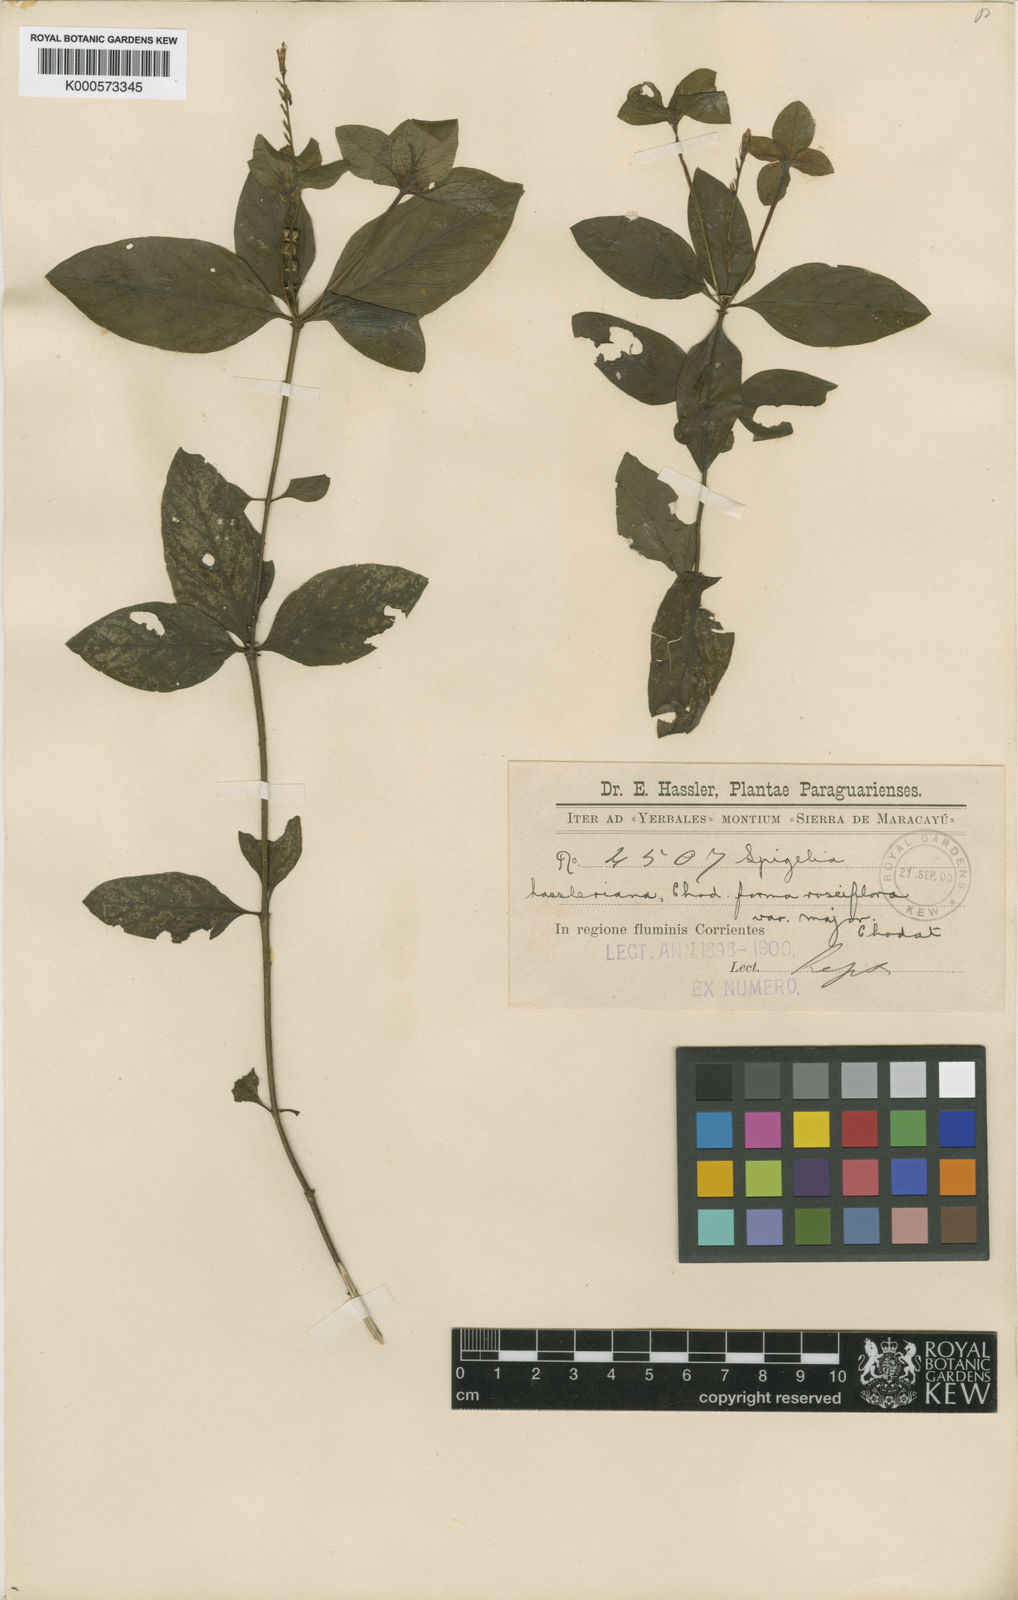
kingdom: Plantae
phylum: Tracheophyta
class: Magnoliopsida
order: Gentianales
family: Loganiaceae
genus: Spigelia
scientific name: Spigelia humboldtiana
